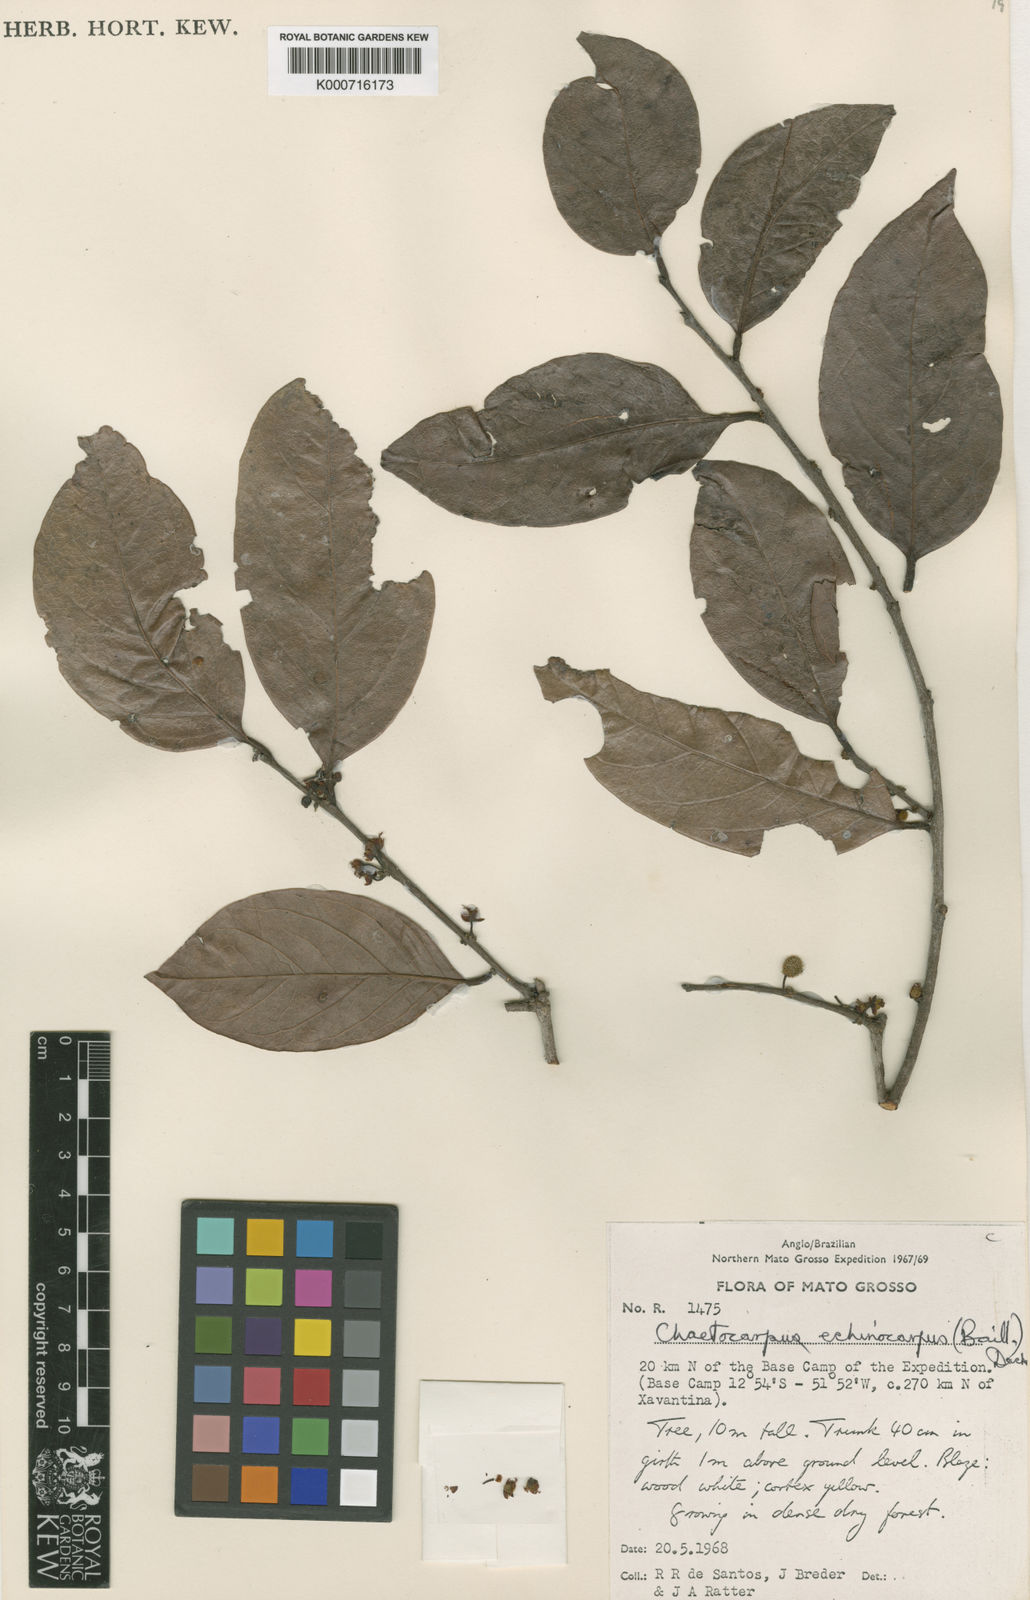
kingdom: Plantae
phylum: Tracheophyta
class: Magnoliopsida
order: Malpighiales
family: Peraceae
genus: Chaetocarpus
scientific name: Chaetocarpus echinocarpus
